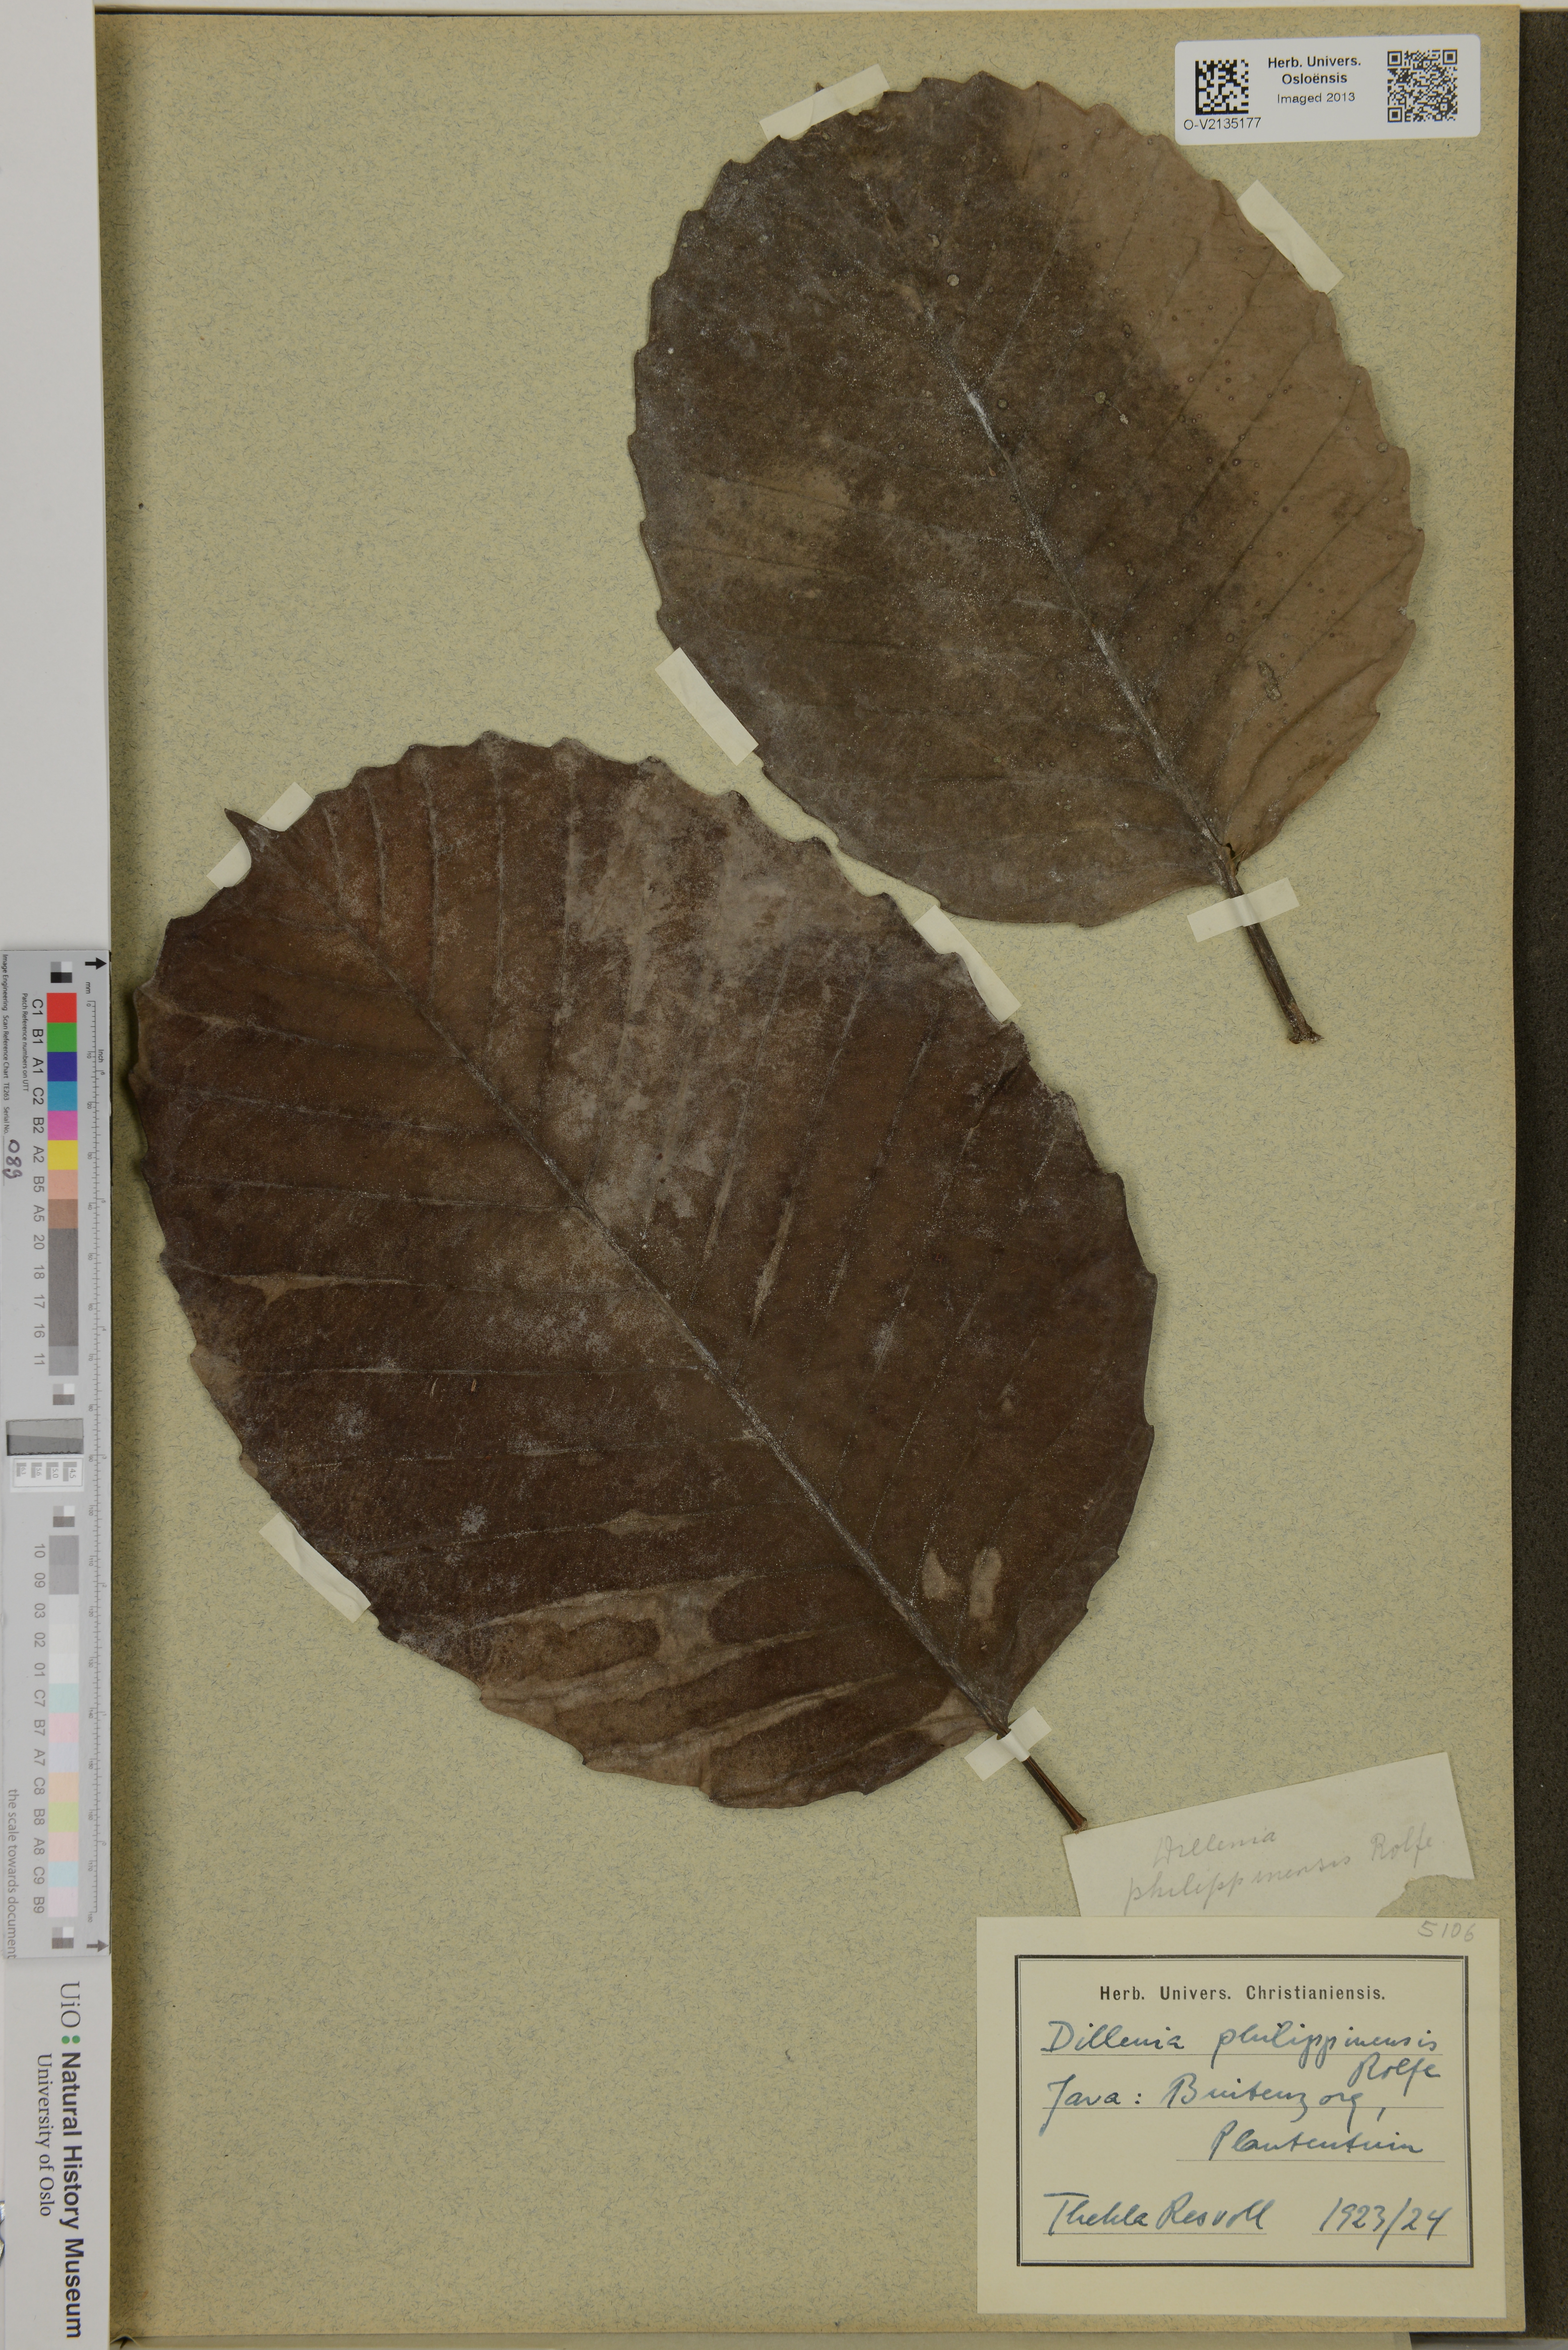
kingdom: Plantae
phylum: Tracheophyta
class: Magnoliopsida
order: Dilleniales
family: Dilleniaceae
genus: Dillenia
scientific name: Dillenia philippinensis
